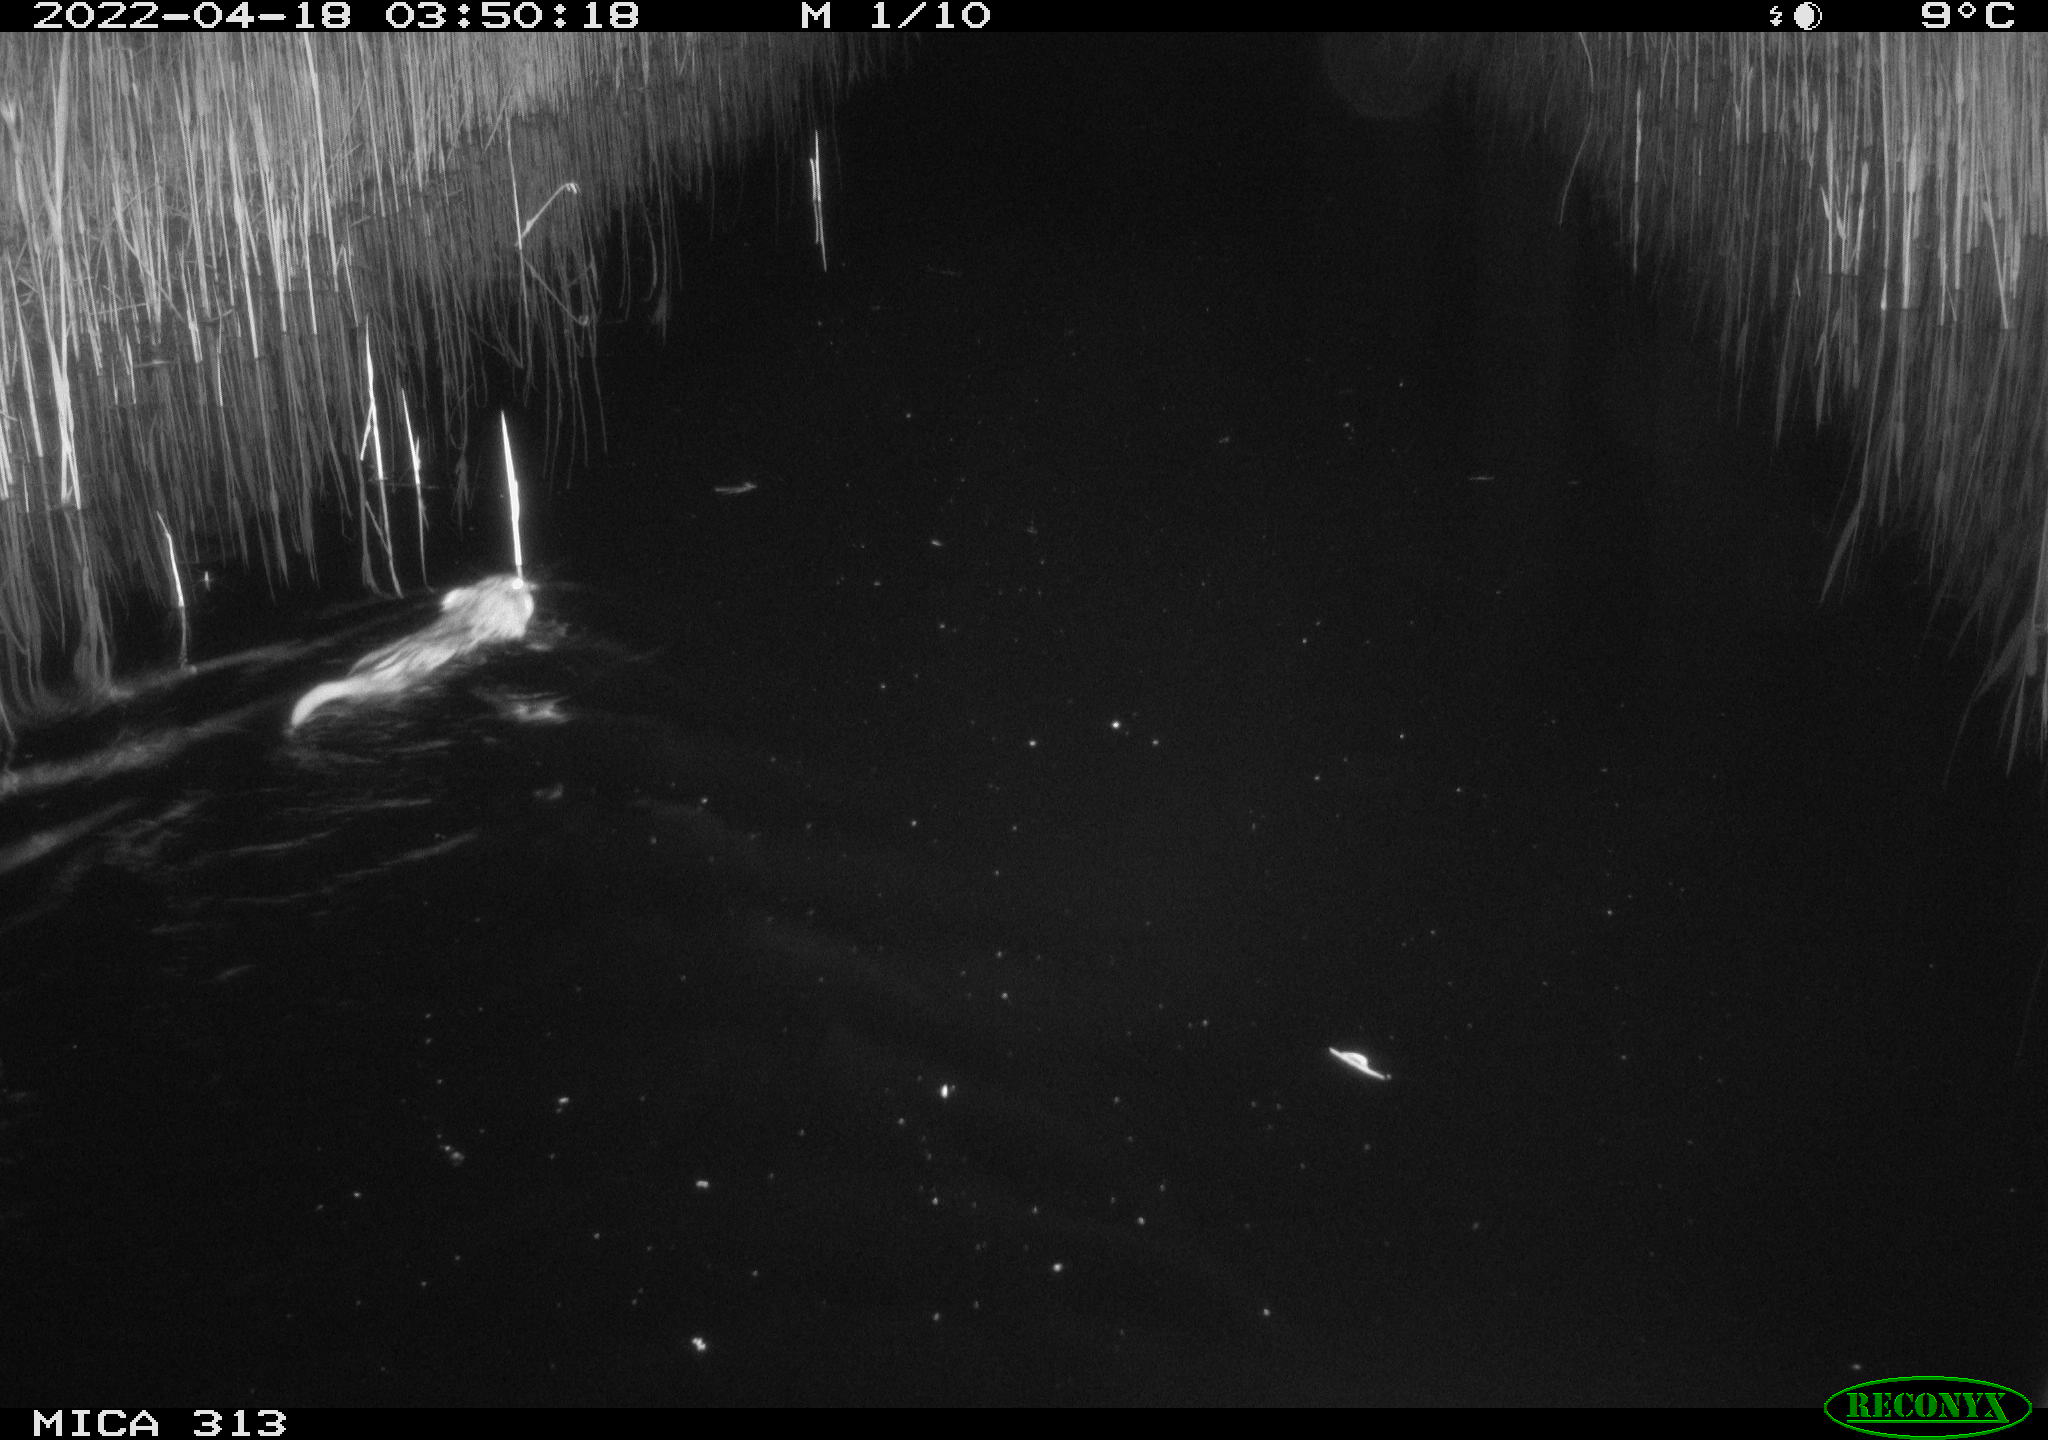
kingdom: Animalia
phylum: Chordata
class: Mammalia
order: Rodentia
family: Cricetidae
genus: Ondatra
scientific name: Ondatra zibethicus
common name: Muskrat
